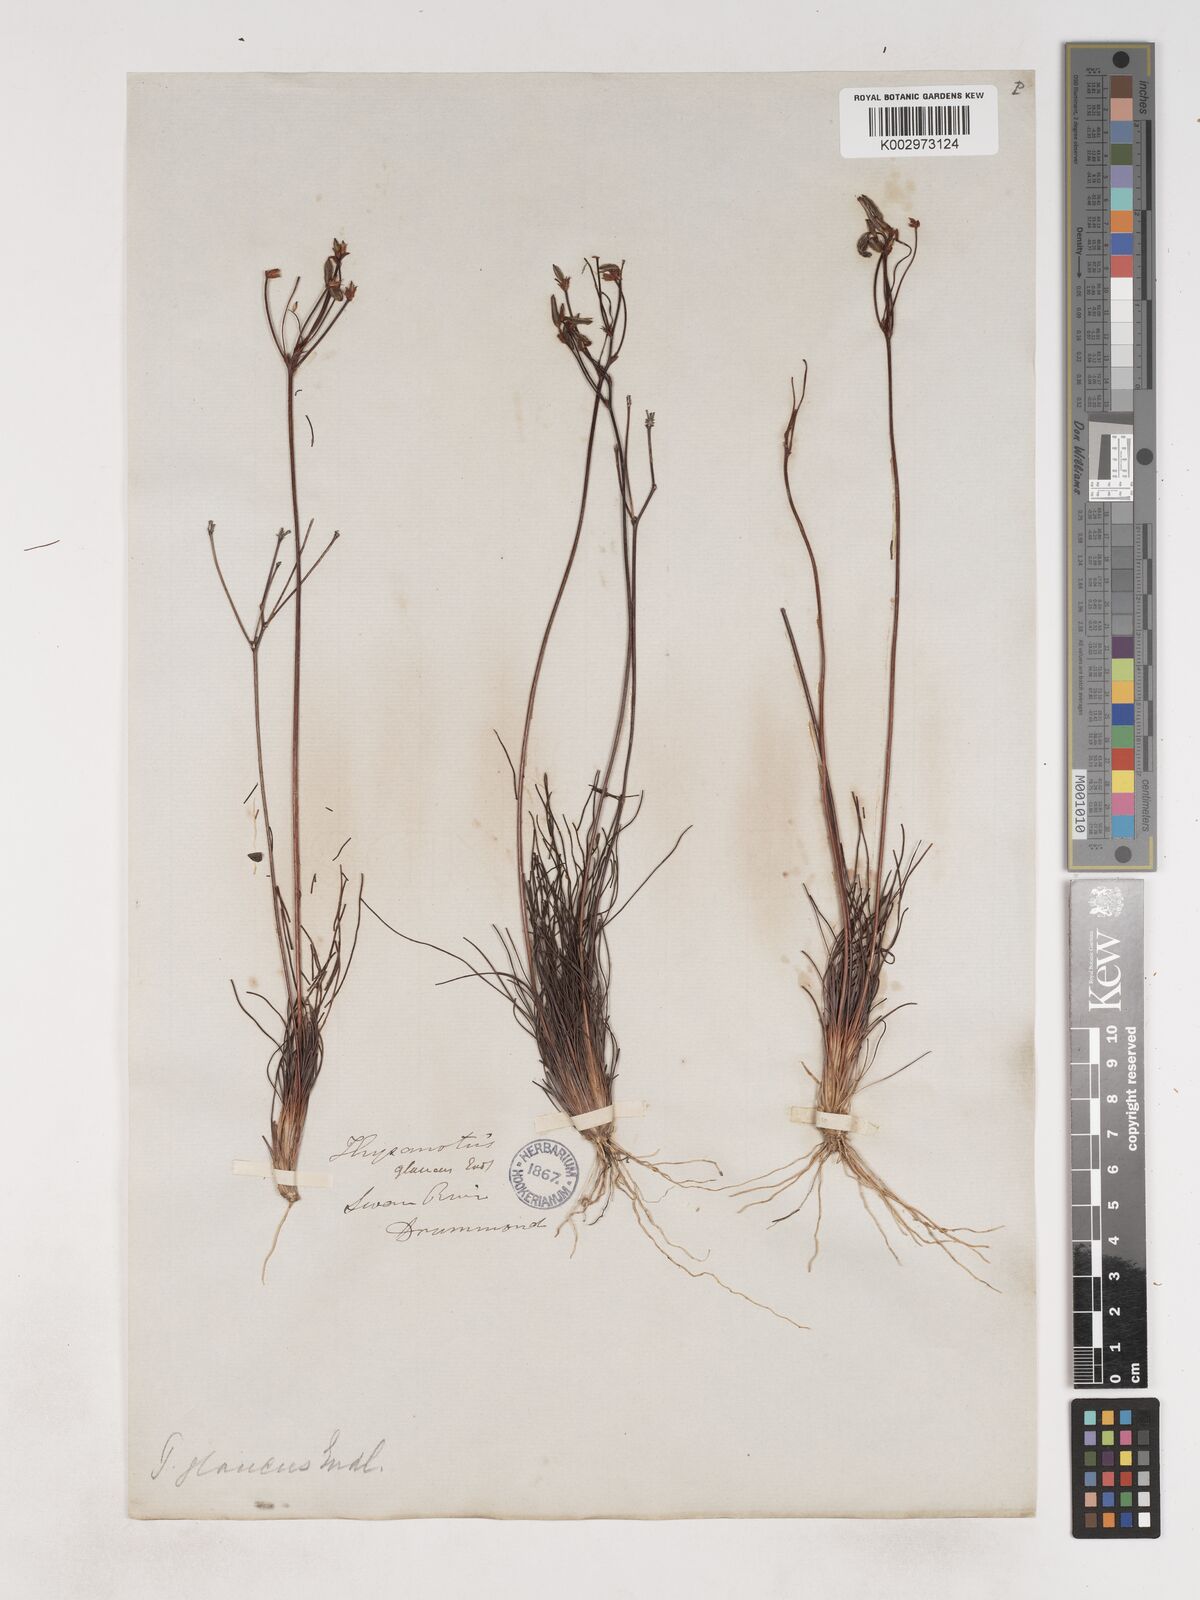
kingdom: Plantae
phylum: Tracheophyta
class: Liliopsida
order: Asparagales
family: Asparagaceae
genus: Thysanotus
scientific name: Thysanotus glaucus
